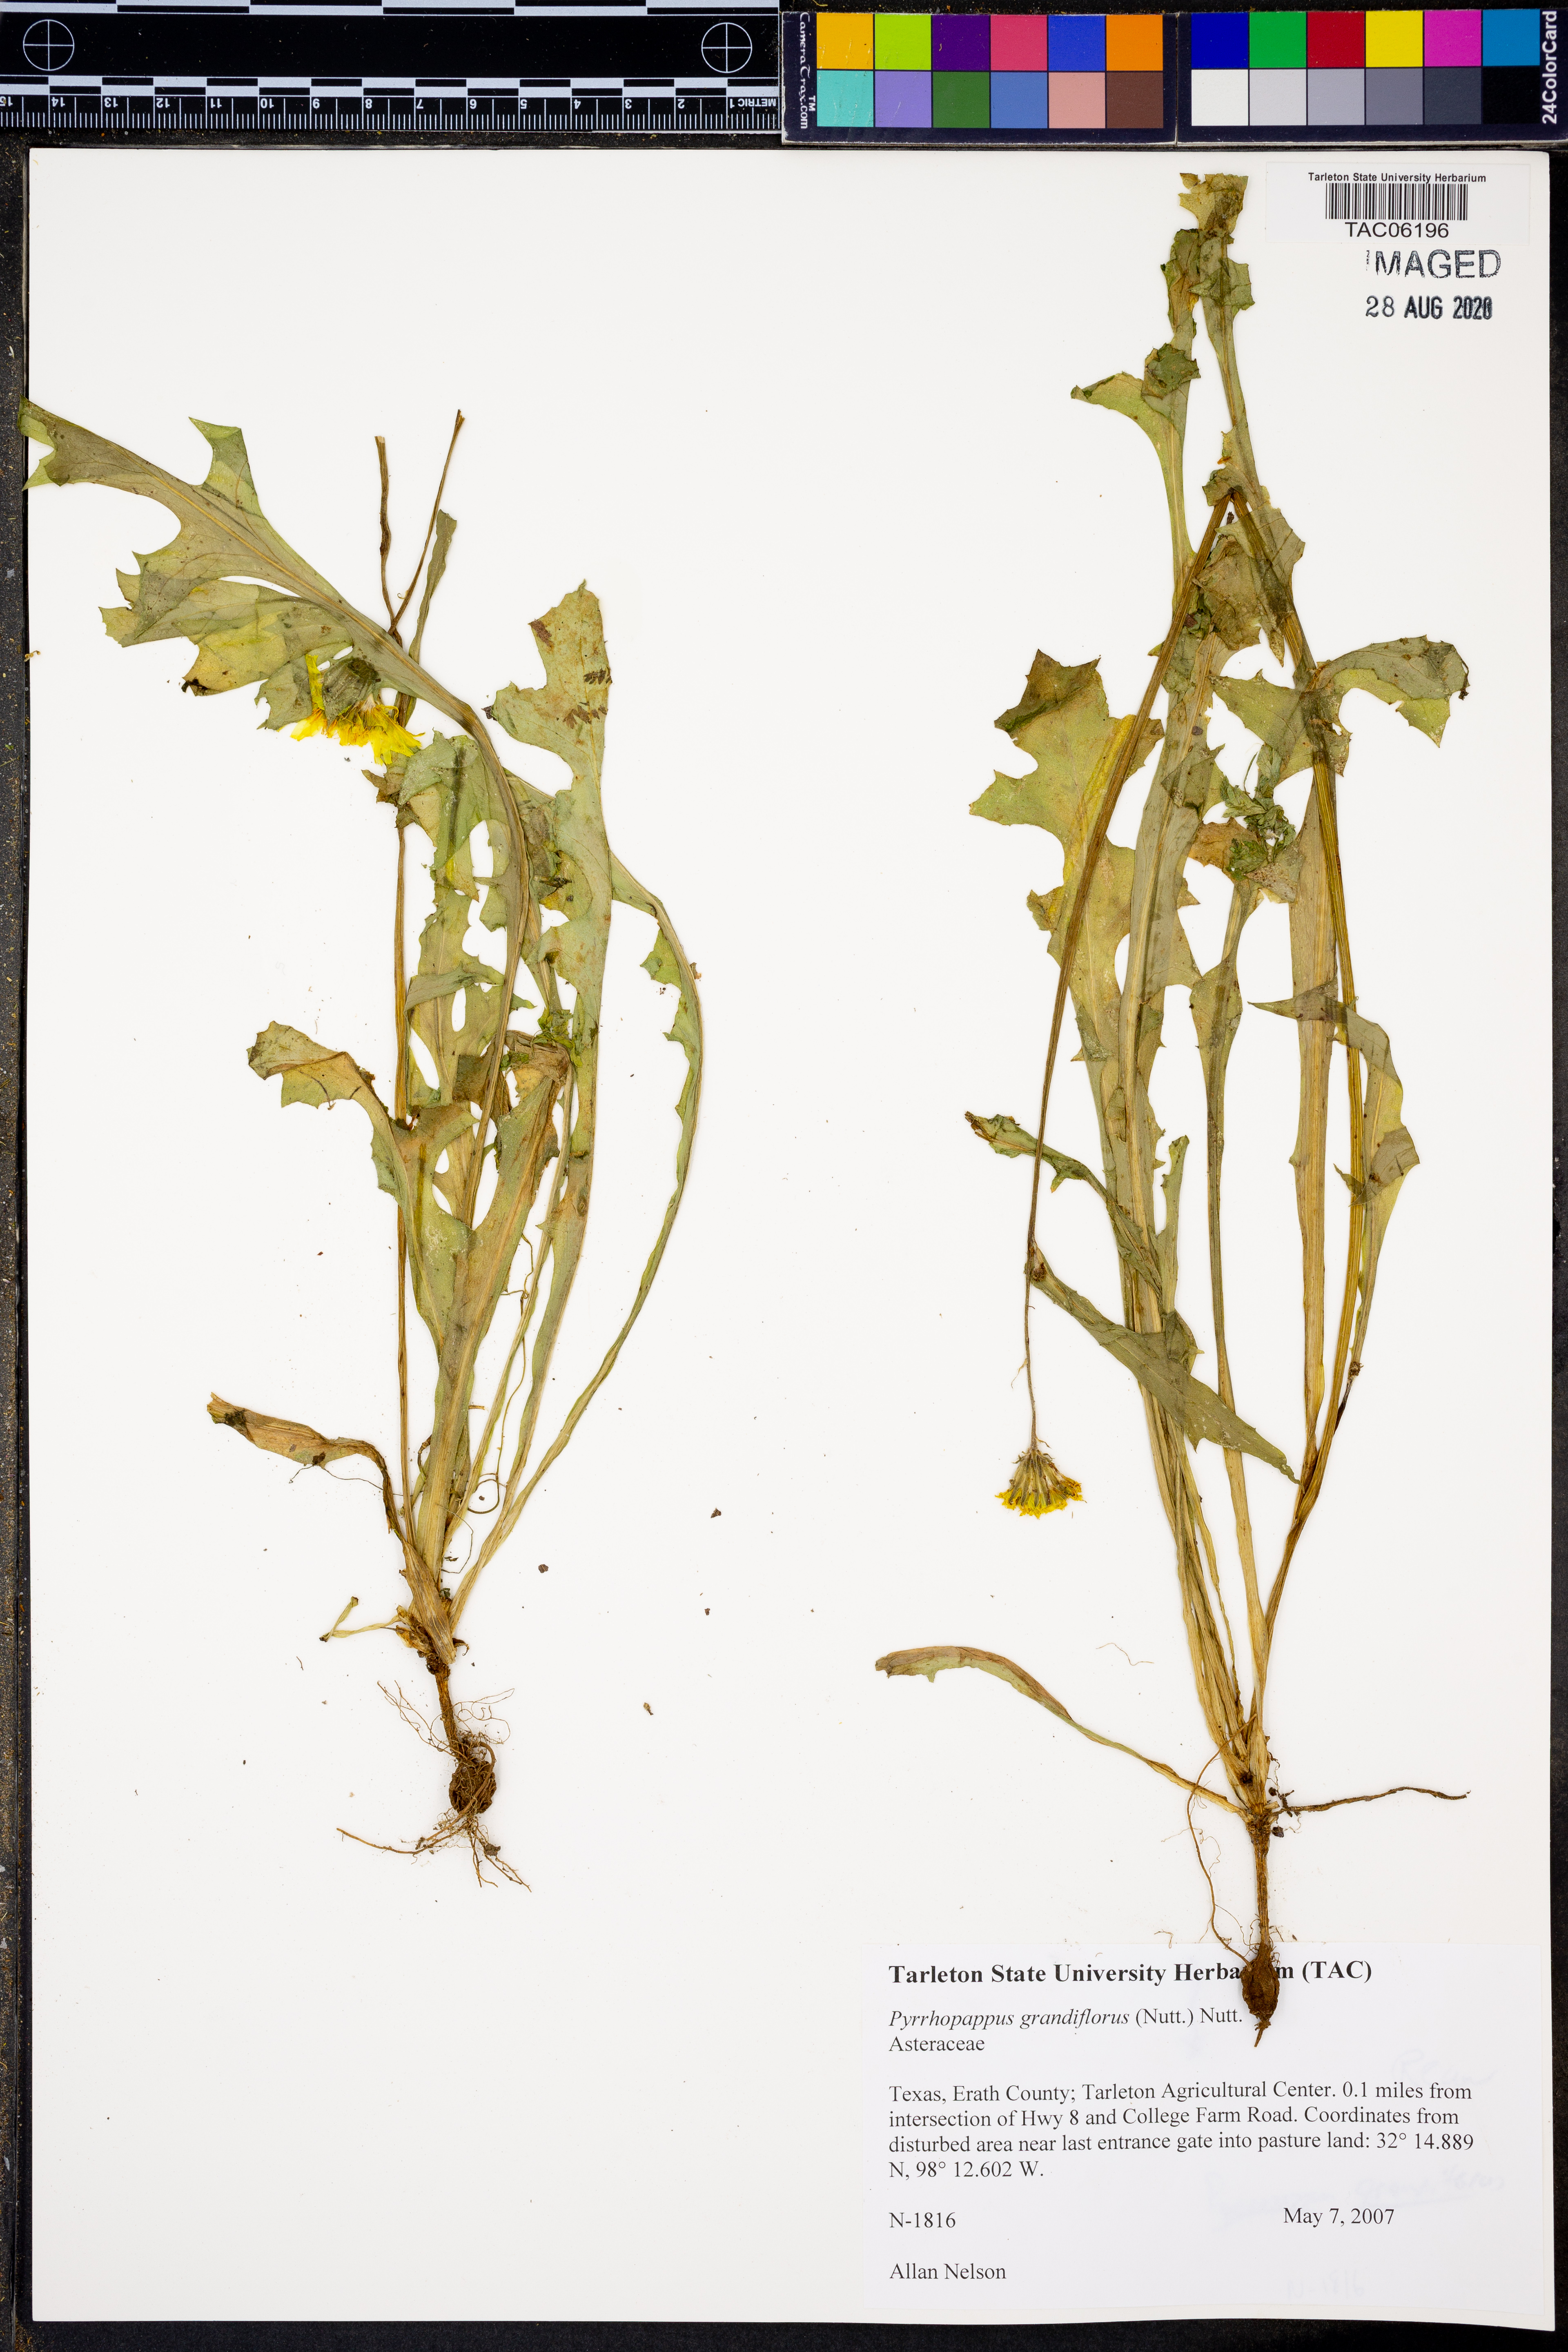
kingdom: Plantae
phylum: Tracheophyta
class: Magnoliopsida
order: Asterales
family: Asteraceae
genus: Pyrrhopappus
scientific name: Pyrrhopappus grandiflorus
